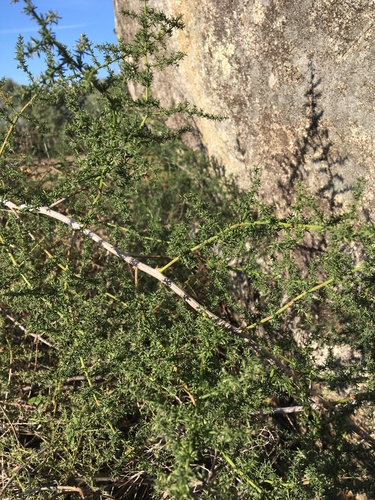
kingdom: Plantae
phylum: Tracheophyta
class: Liliopsida
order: Asparagales
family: Asparagaceae
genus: Asparagus
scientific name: Asparagus acutifolius
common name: Wild asparagus
